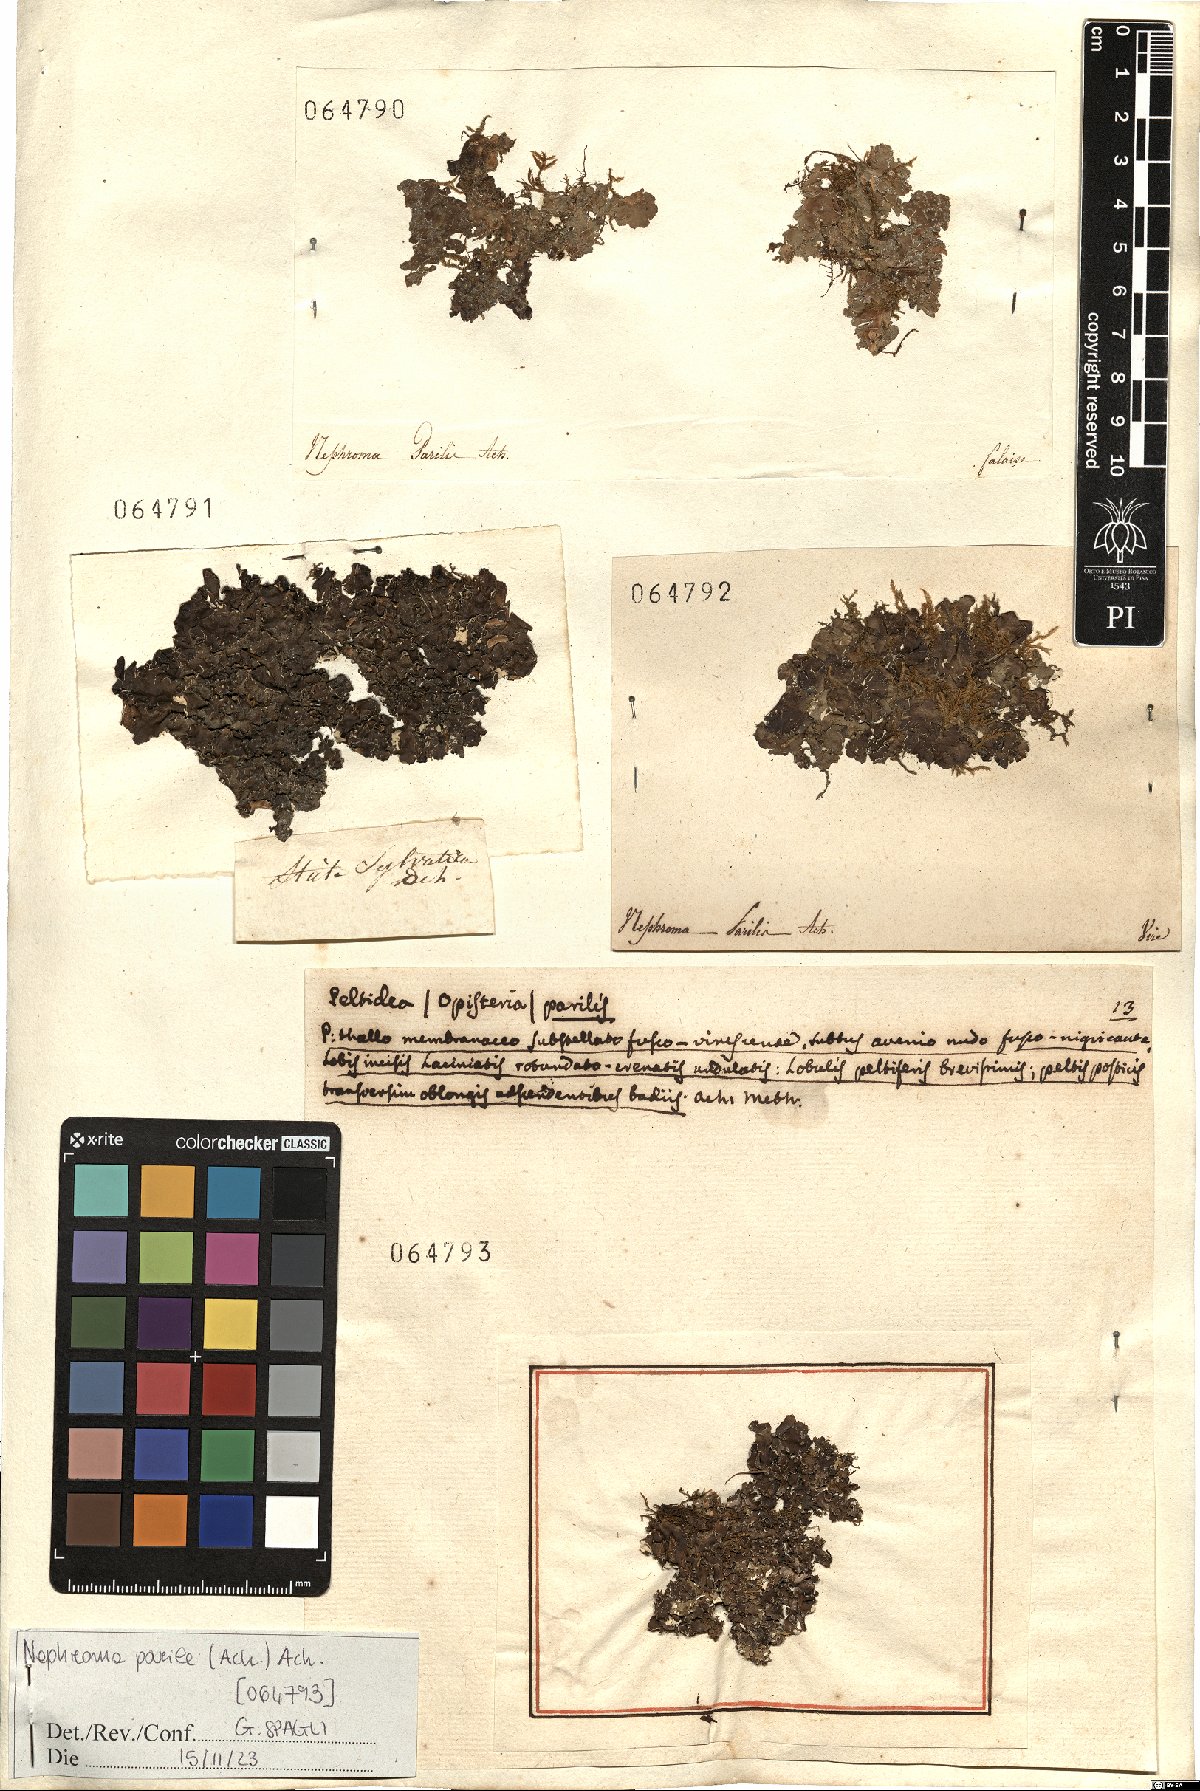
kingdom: Fungi
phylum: Ascomycota
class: Lecanoromycetes
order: Peltigerales
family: Nephromataceae
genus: Nephroma
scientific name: Nephroma parile
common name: Powdery kidney lichen
